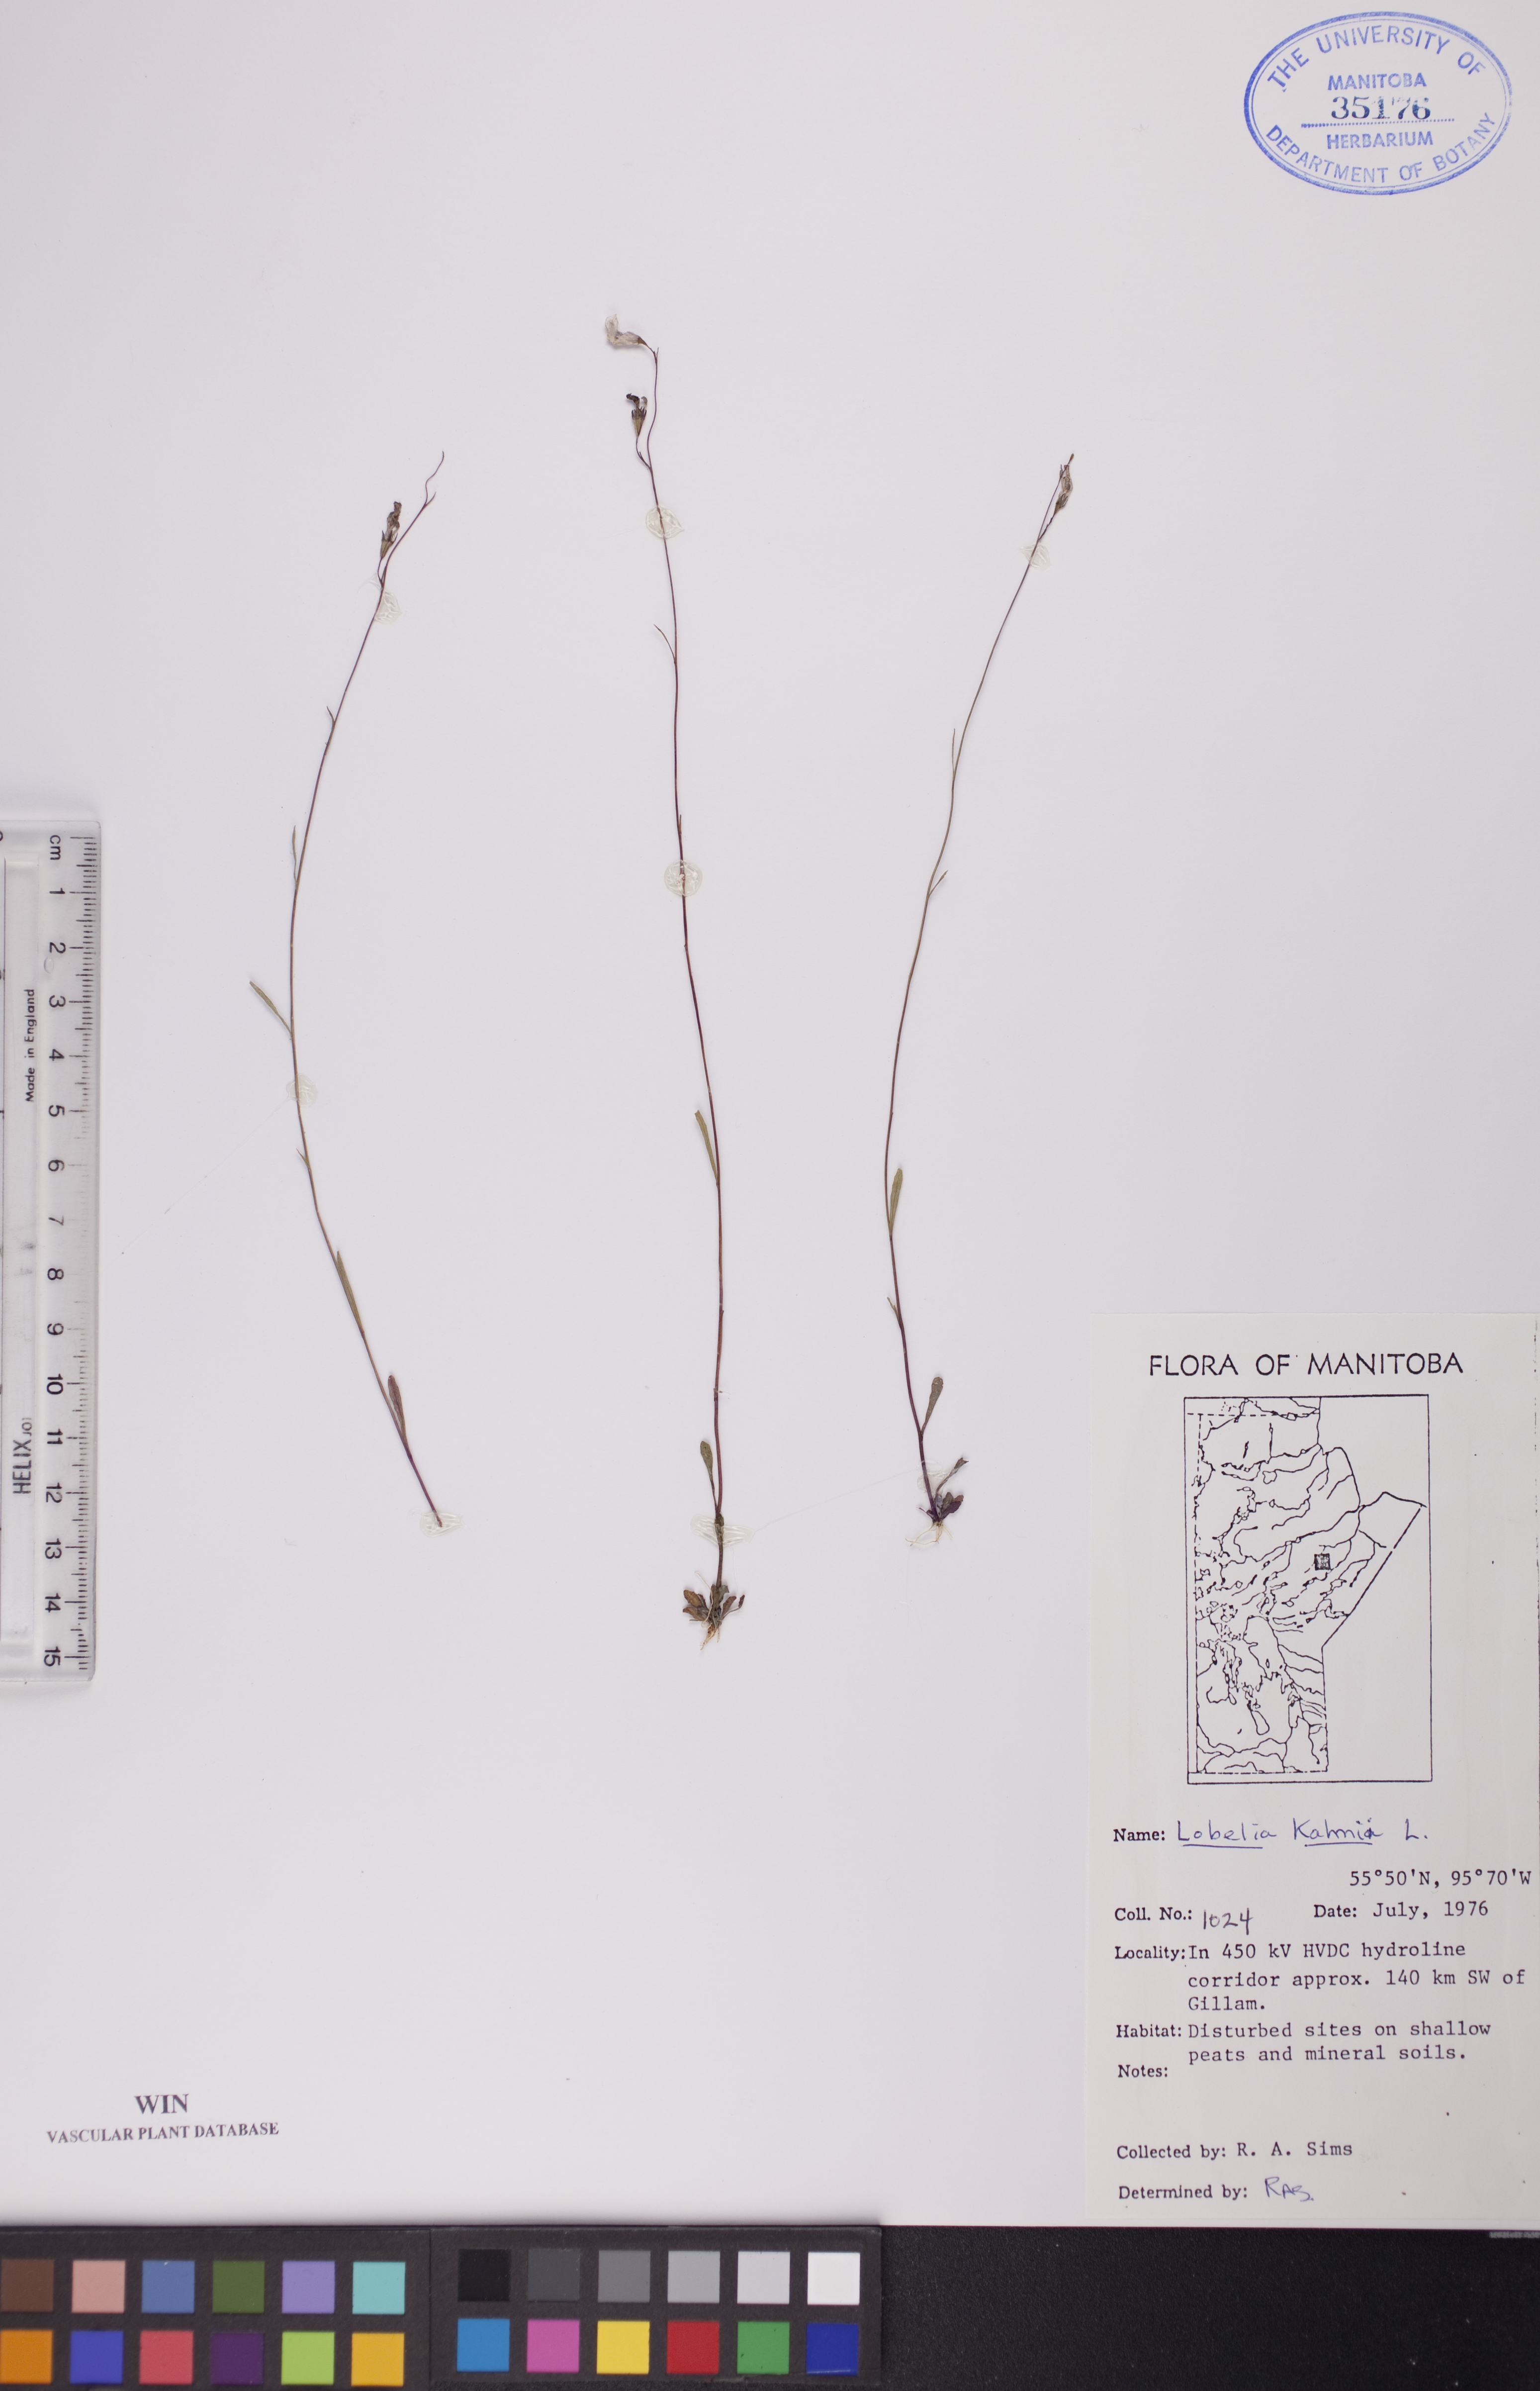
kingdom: Plantae
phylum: Tracheophyta
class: Magnoliopsida
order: Asterales
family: Campanulaceae
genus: Lobelia
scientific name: Lobelia kalmii
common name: Kalm's lobelia
